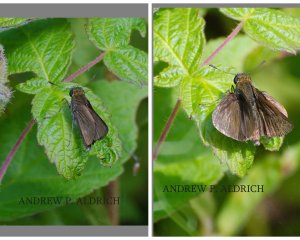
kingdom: Animalia
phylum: Arthropoda
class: Insecta
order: Lepidoptera
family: Hesperiidae
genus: Euphyes
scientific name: Euphyes vestris
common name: Dun Skipper
